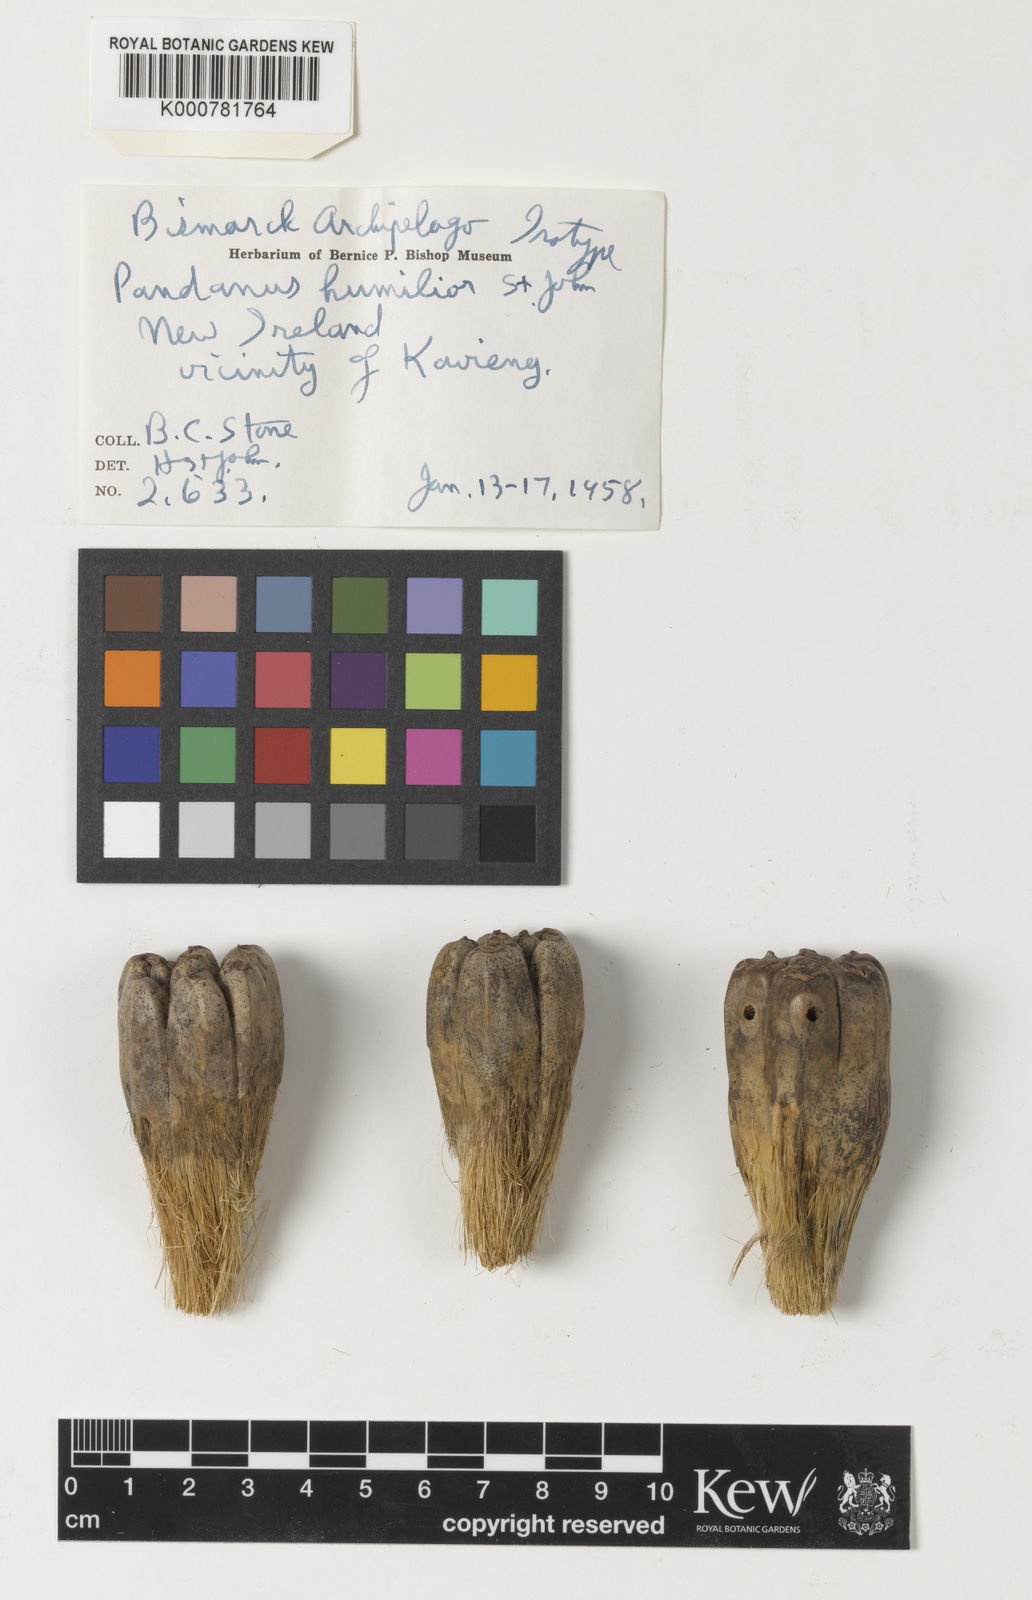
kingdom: Plantae
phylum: Tracheophyta
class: Liliopsida
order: Pandanales
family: Pandanaceae
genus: Pandanus
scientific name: Pandanus humilior
